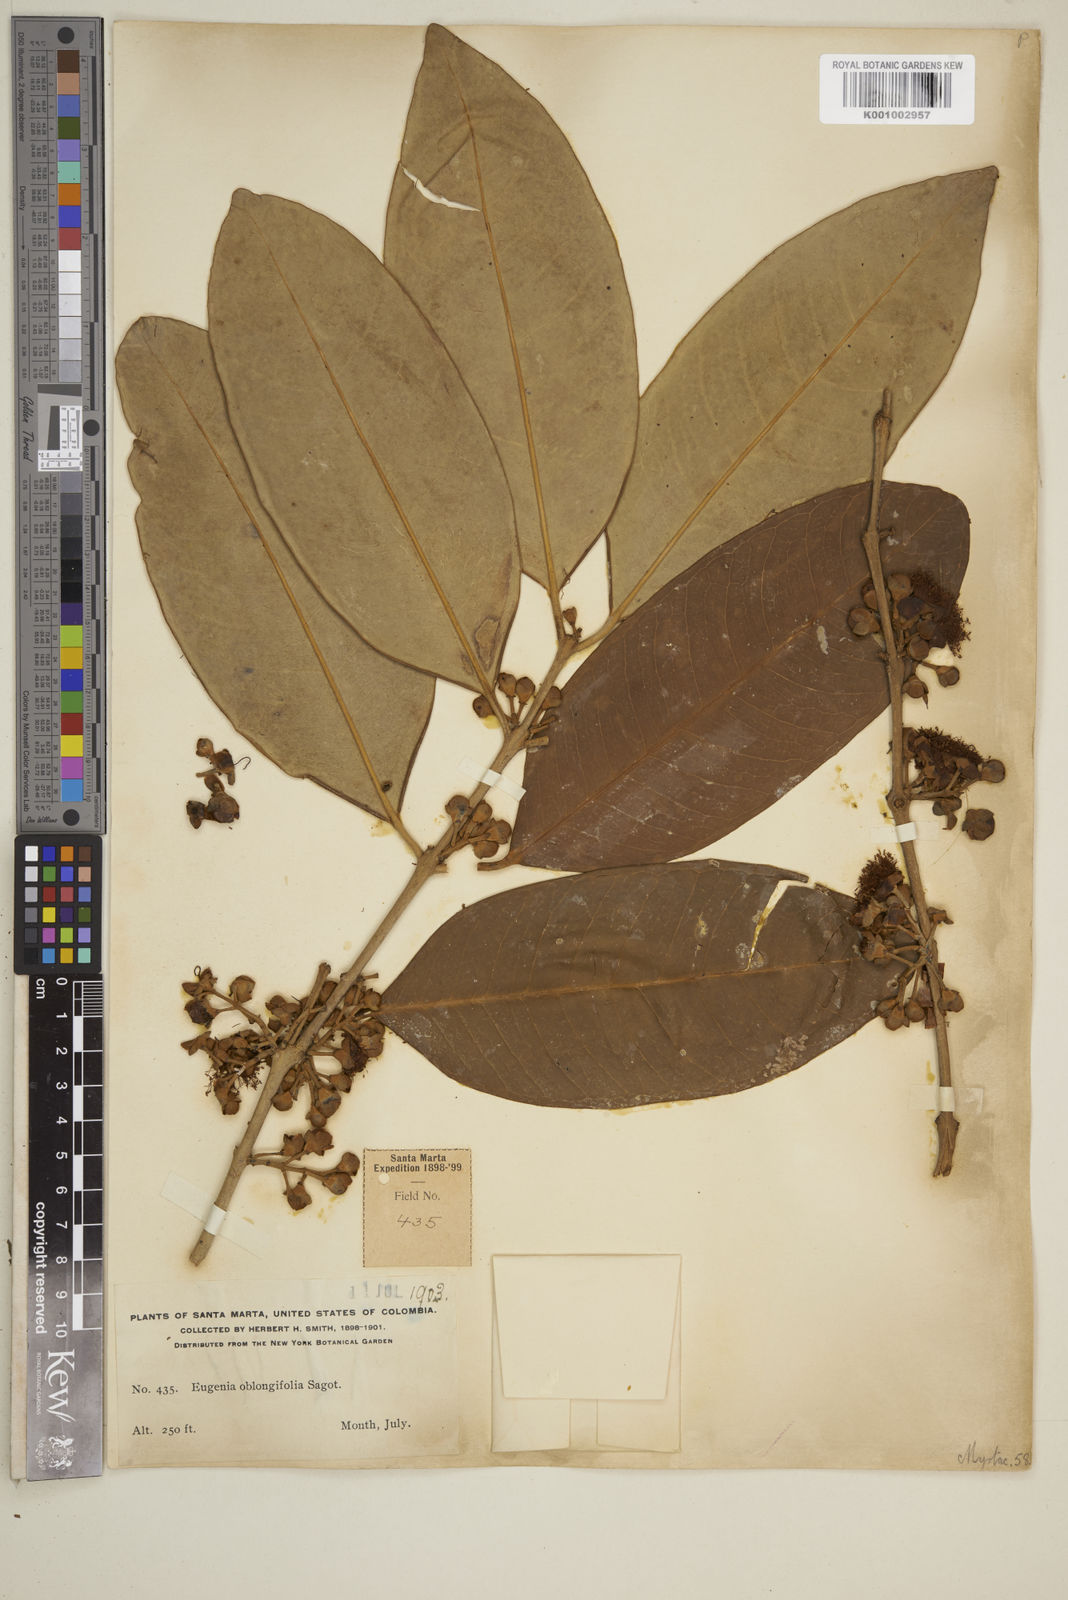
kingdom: Plantae
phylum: Tracheophyta
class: Magnoliopsida
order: Myrtales
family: Myrtaceae
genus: Syzygium
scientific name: Syzygium maingayi
